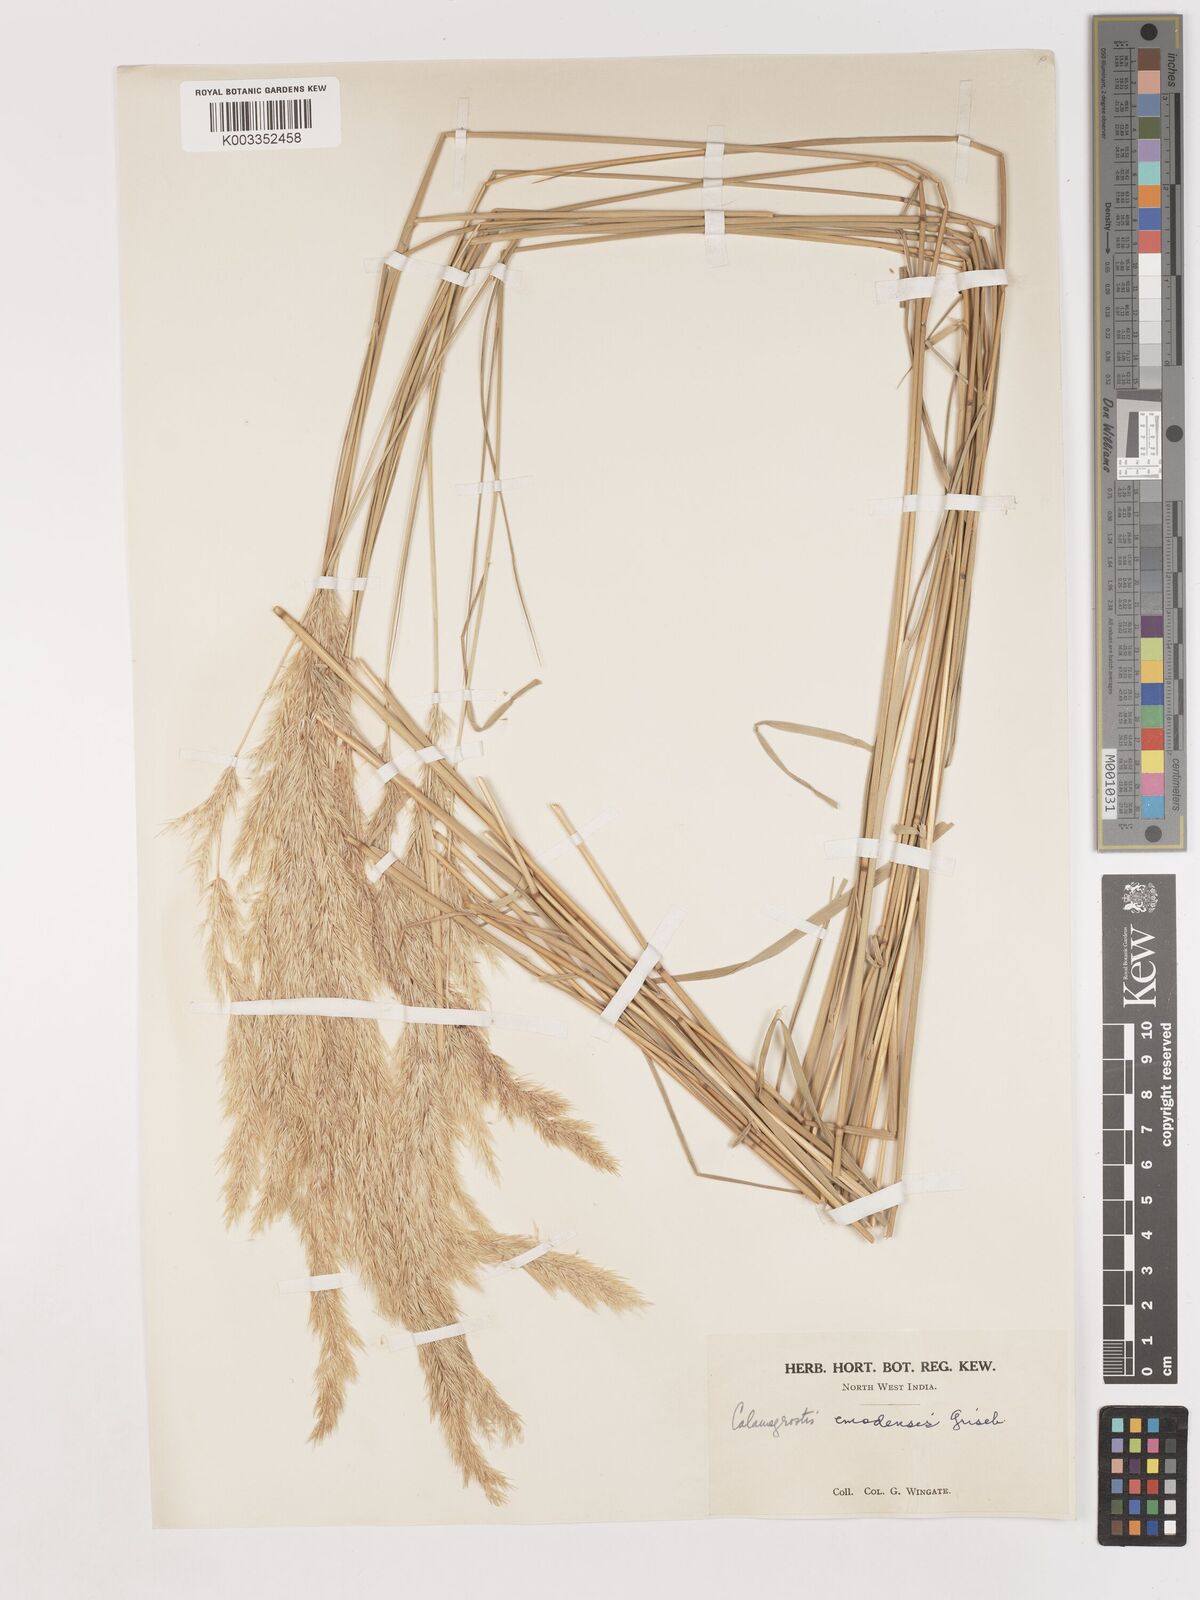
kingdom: Plantae
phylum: Tracheophyta
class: Liliopsida
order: Poales
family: Poaceae
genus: Calamagrostis
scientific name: Calamagrostis pseudophragmites
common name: Coastal small-reed
